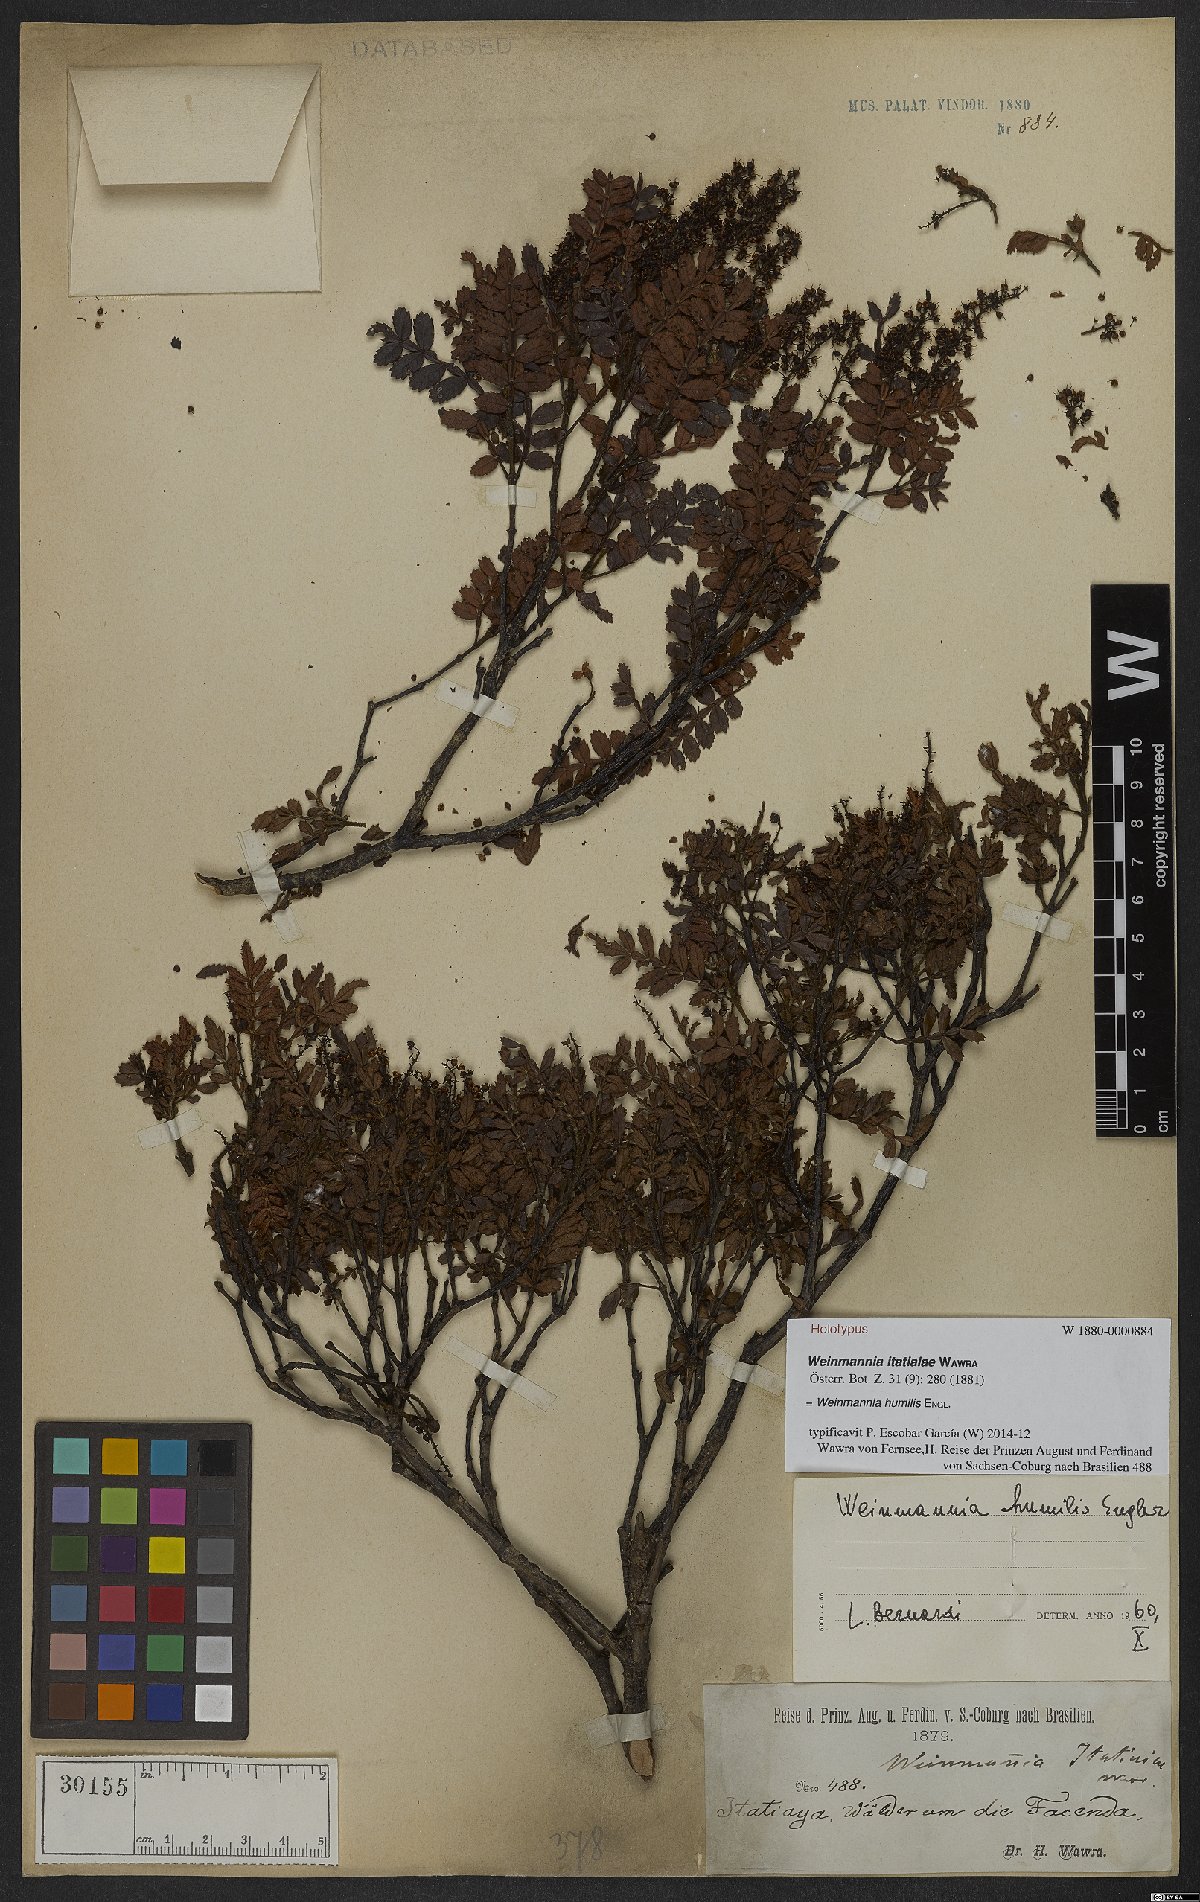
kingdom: Plantae
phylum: Tracheophyta
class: Magnoliopsida
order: Oxalidales
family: Cunoniaceae
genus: Weinmannia
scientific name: Weinmannia humilis
